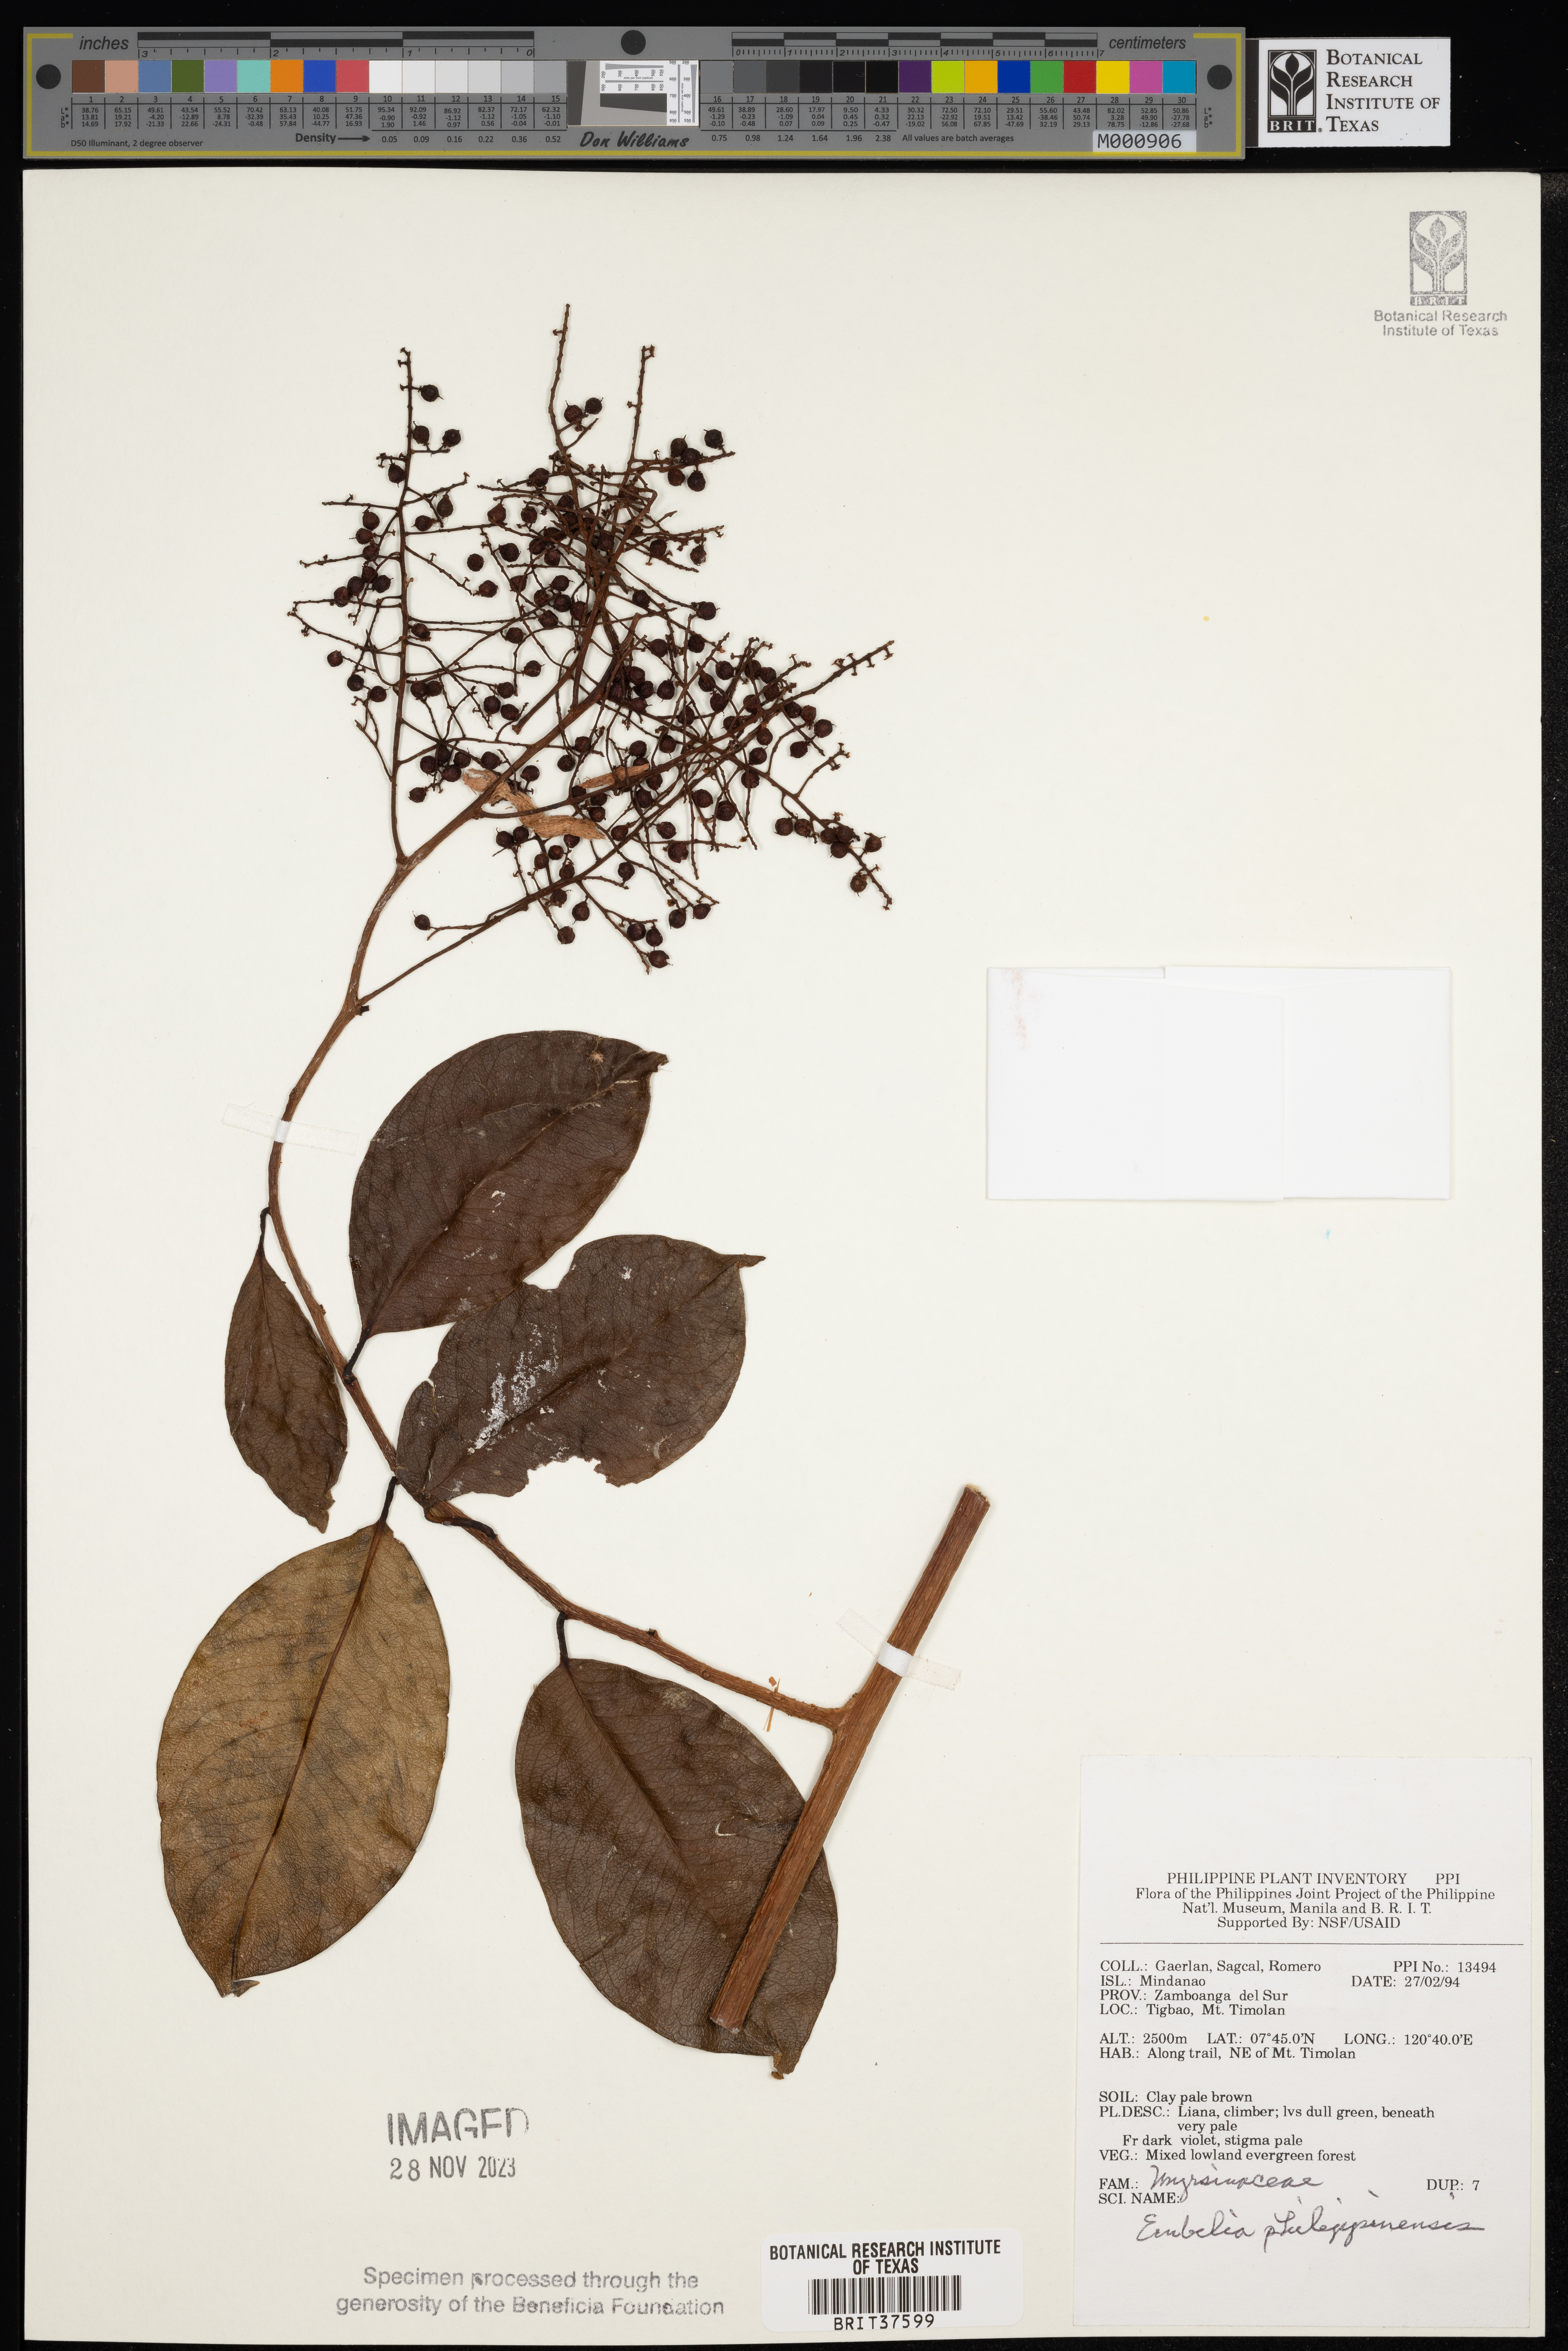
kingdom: Plantae
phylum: Tracheophyta
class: Magnoliopsida
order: Ericales
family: Primulaceae
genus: Embelia
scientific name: Embelia philippinensis
